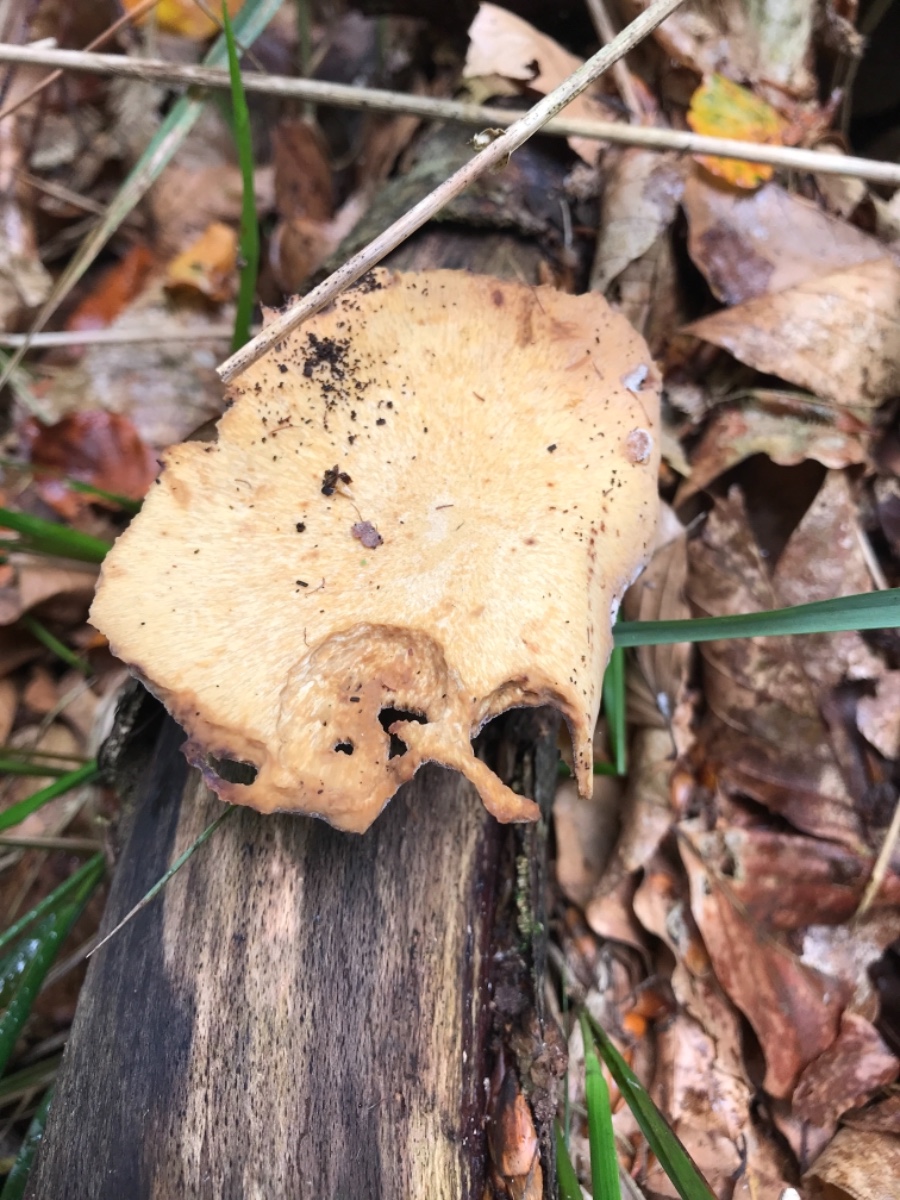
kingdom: Fungi
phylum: Basidiomycota
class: Agaricomycetes
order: Polyporales
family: Polyporaceae
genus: Cerioporus
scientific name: Cerioporus varius
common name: foranderlig stilkporesvamp
